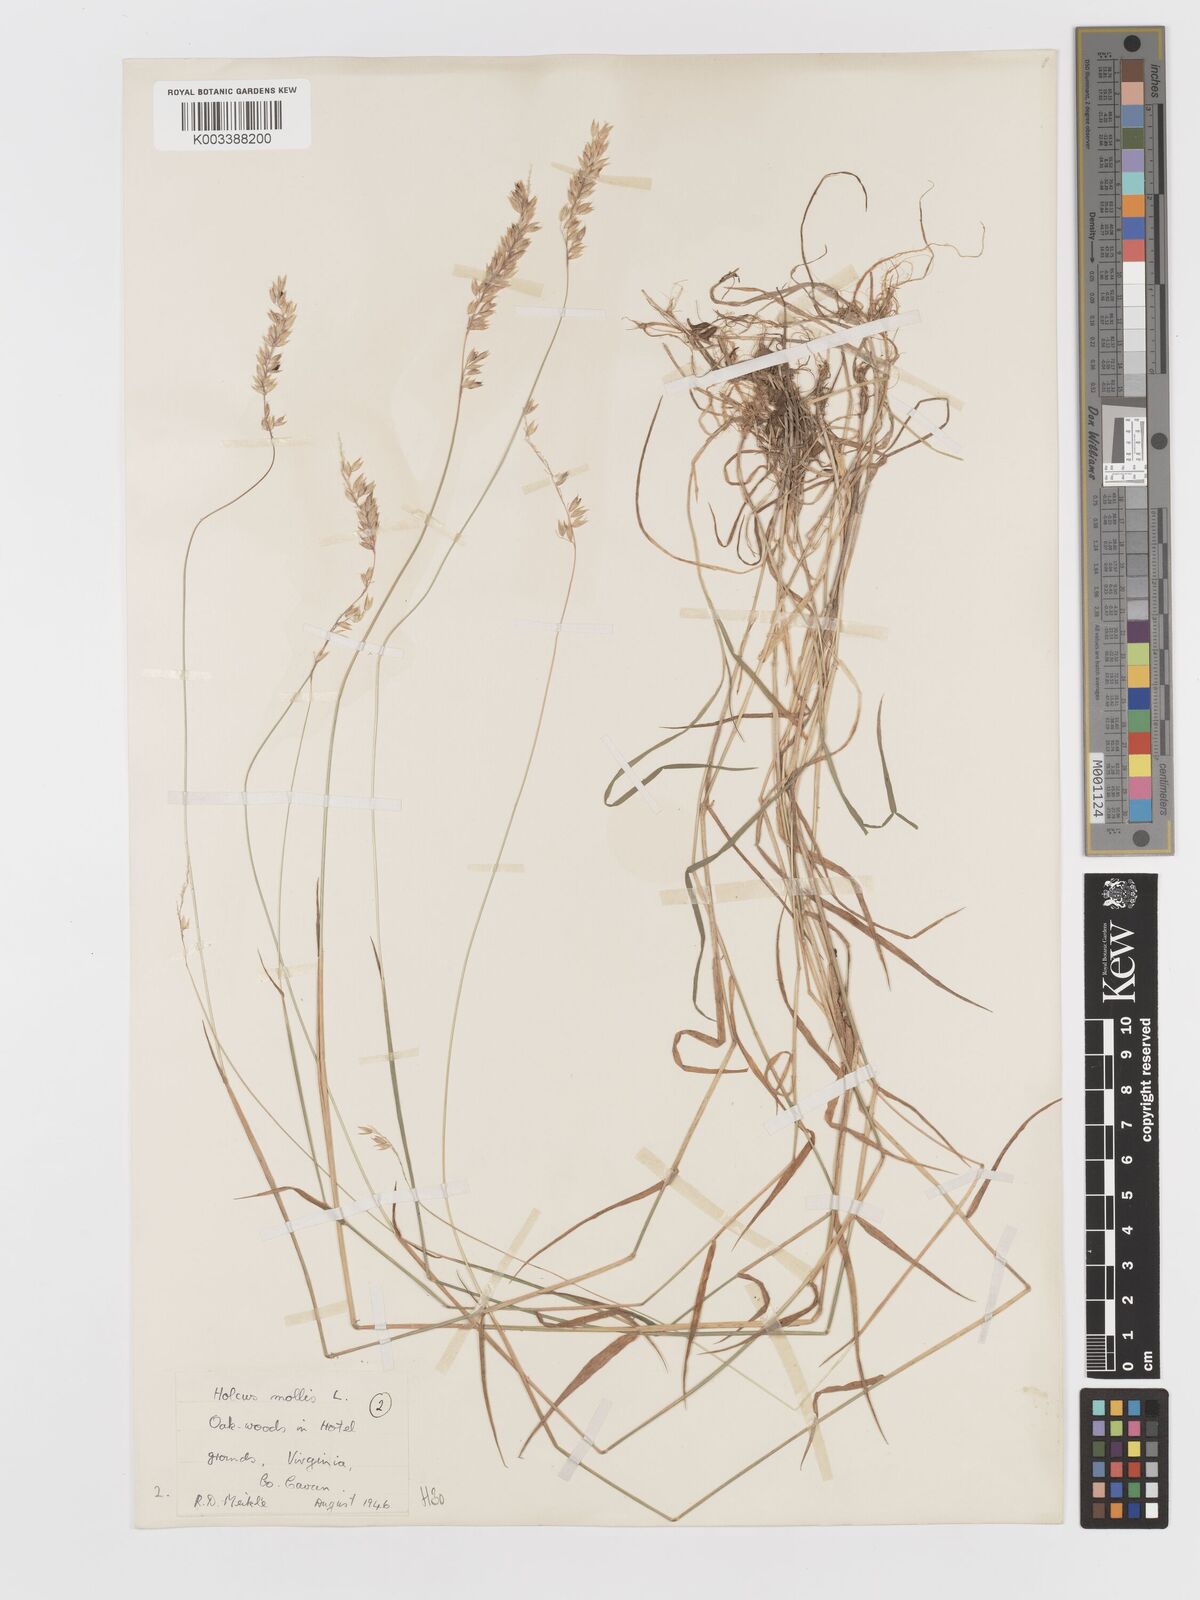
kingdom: Plantae
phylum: Tracheophyta
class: Liliopsida
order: Poales
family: Poaceae
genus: Holcus
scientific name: Holcus mollis
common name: Creeping velvetgrass
